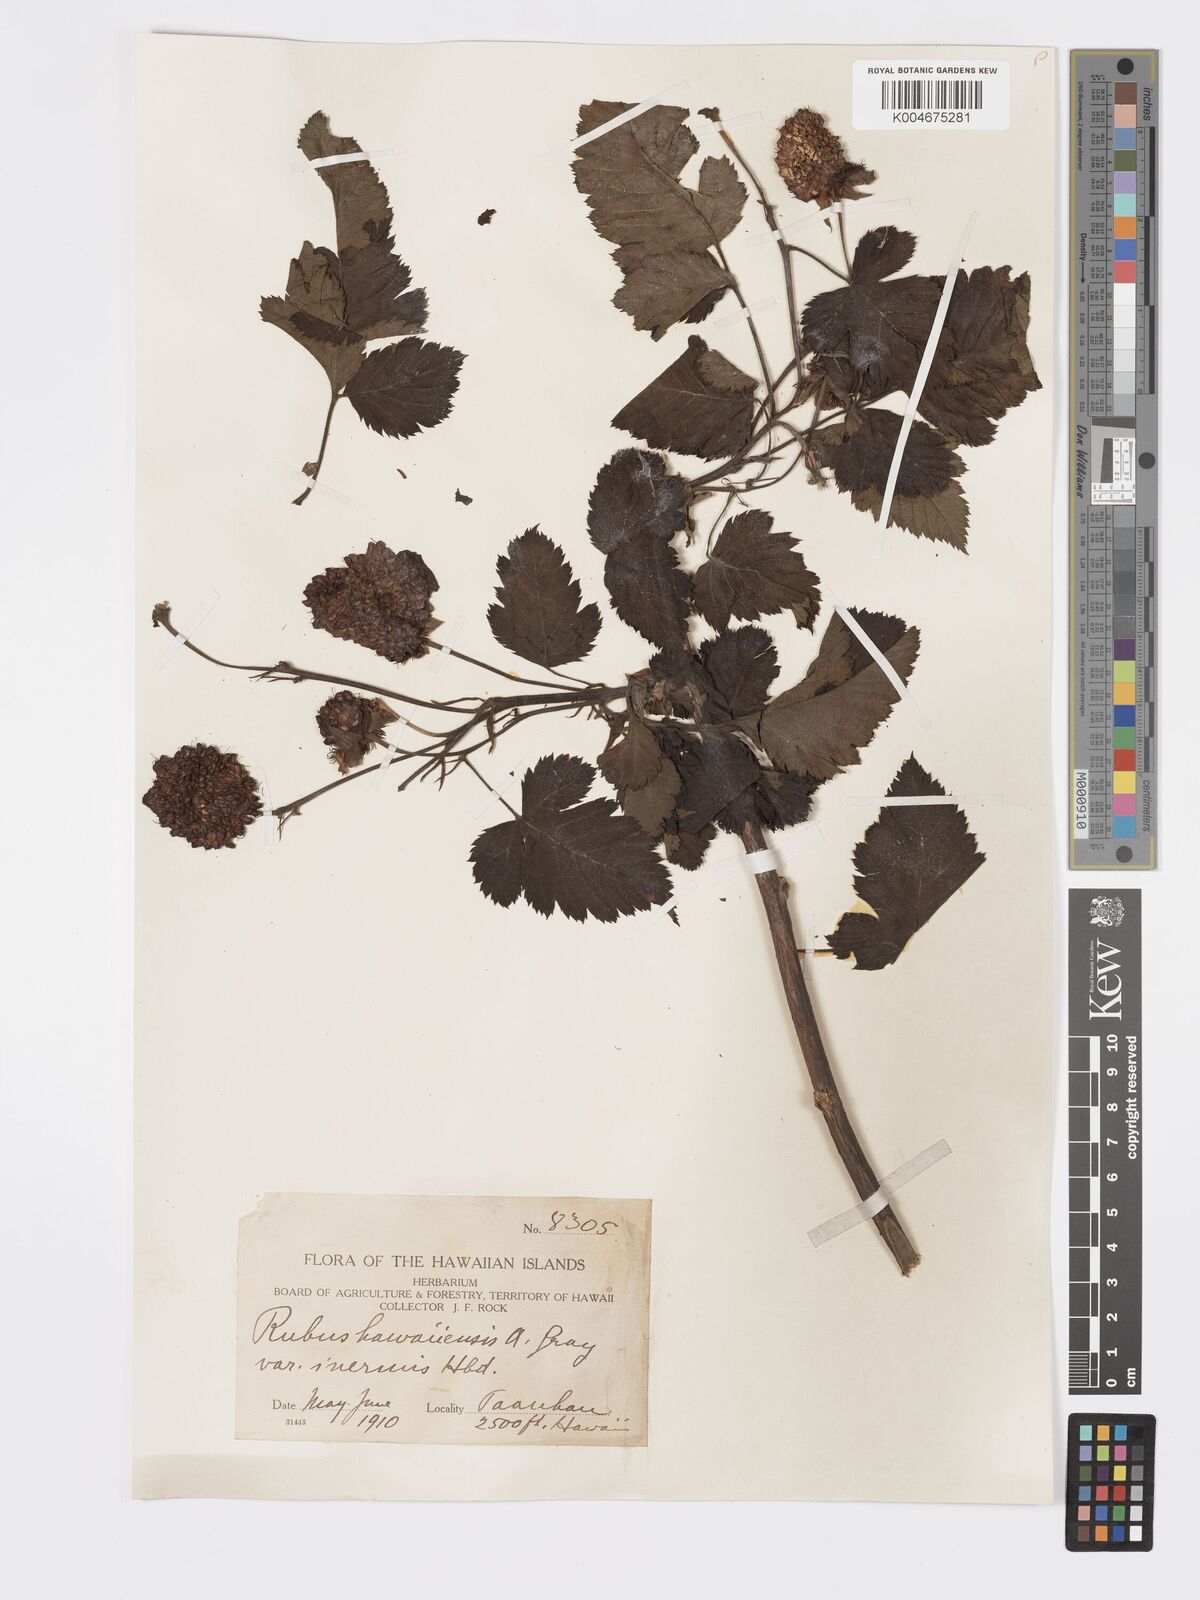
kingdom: Plantae
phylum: Tracheophyta
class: Magnoliopsida
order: Rosales
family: Rosaceae
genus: Rubus
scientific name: Rubus hawaiensis
